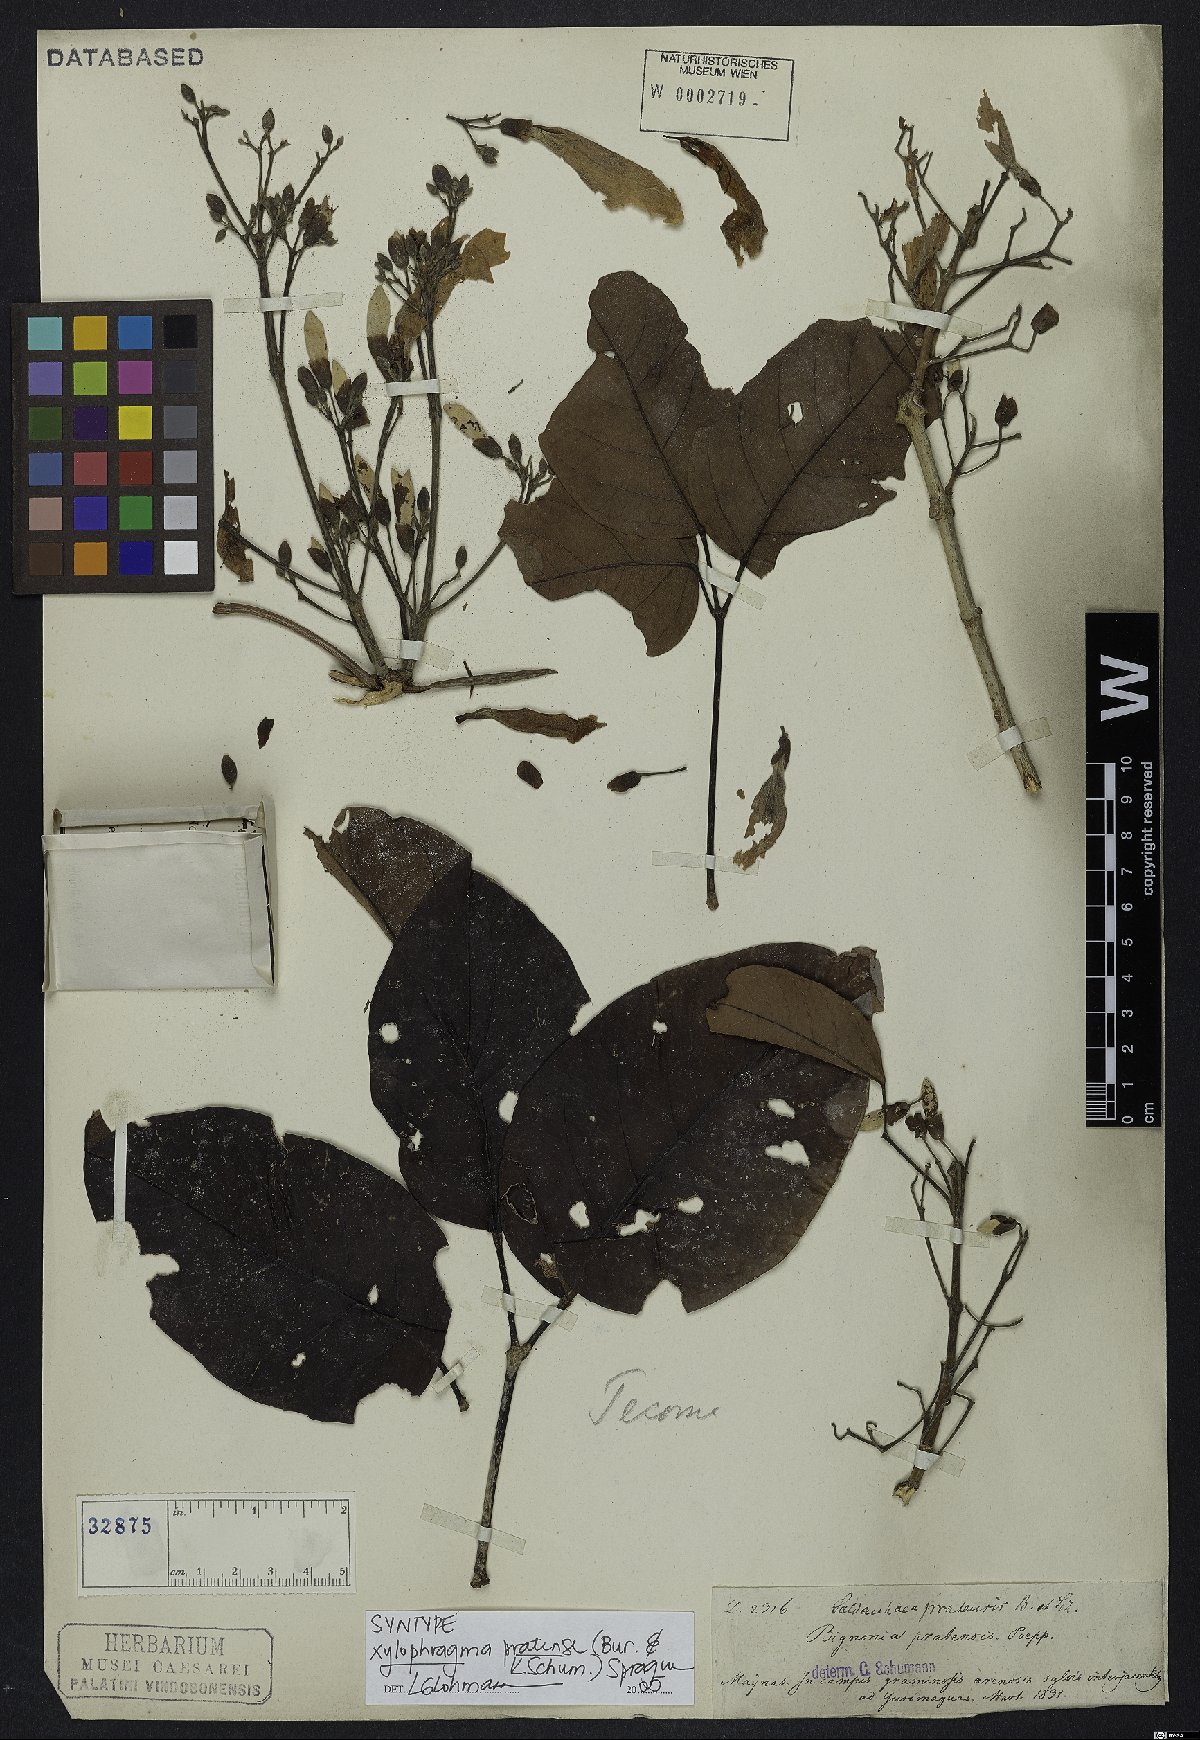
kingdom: Plantae
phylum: Tracheophyta
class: Magnoliopsida
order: Lamiales
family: Bignoniaceae
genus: Xylophragma
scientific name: Xylophragma myrianthum
